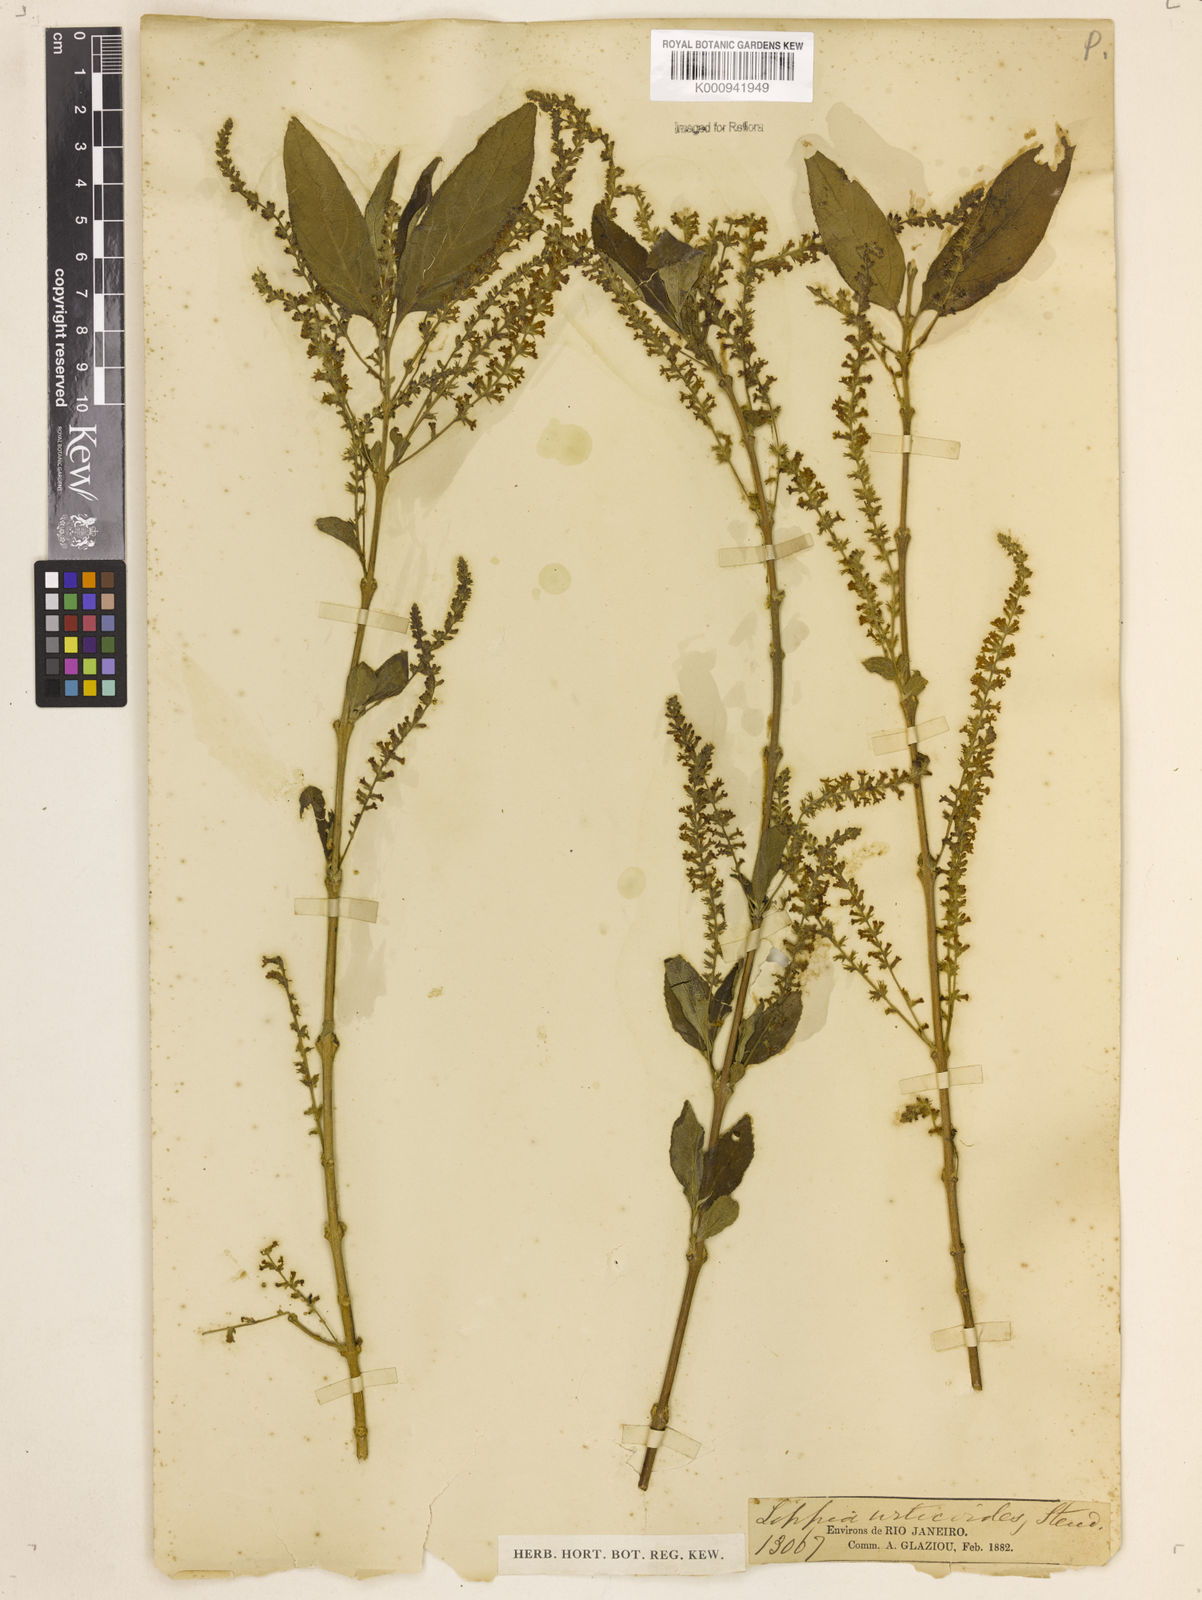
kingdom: Plantae
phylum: Tracheophyta
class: Magnoliopsida
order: Lamiales
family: Verbenaceae
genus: Aloysia
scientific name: Aloysia
